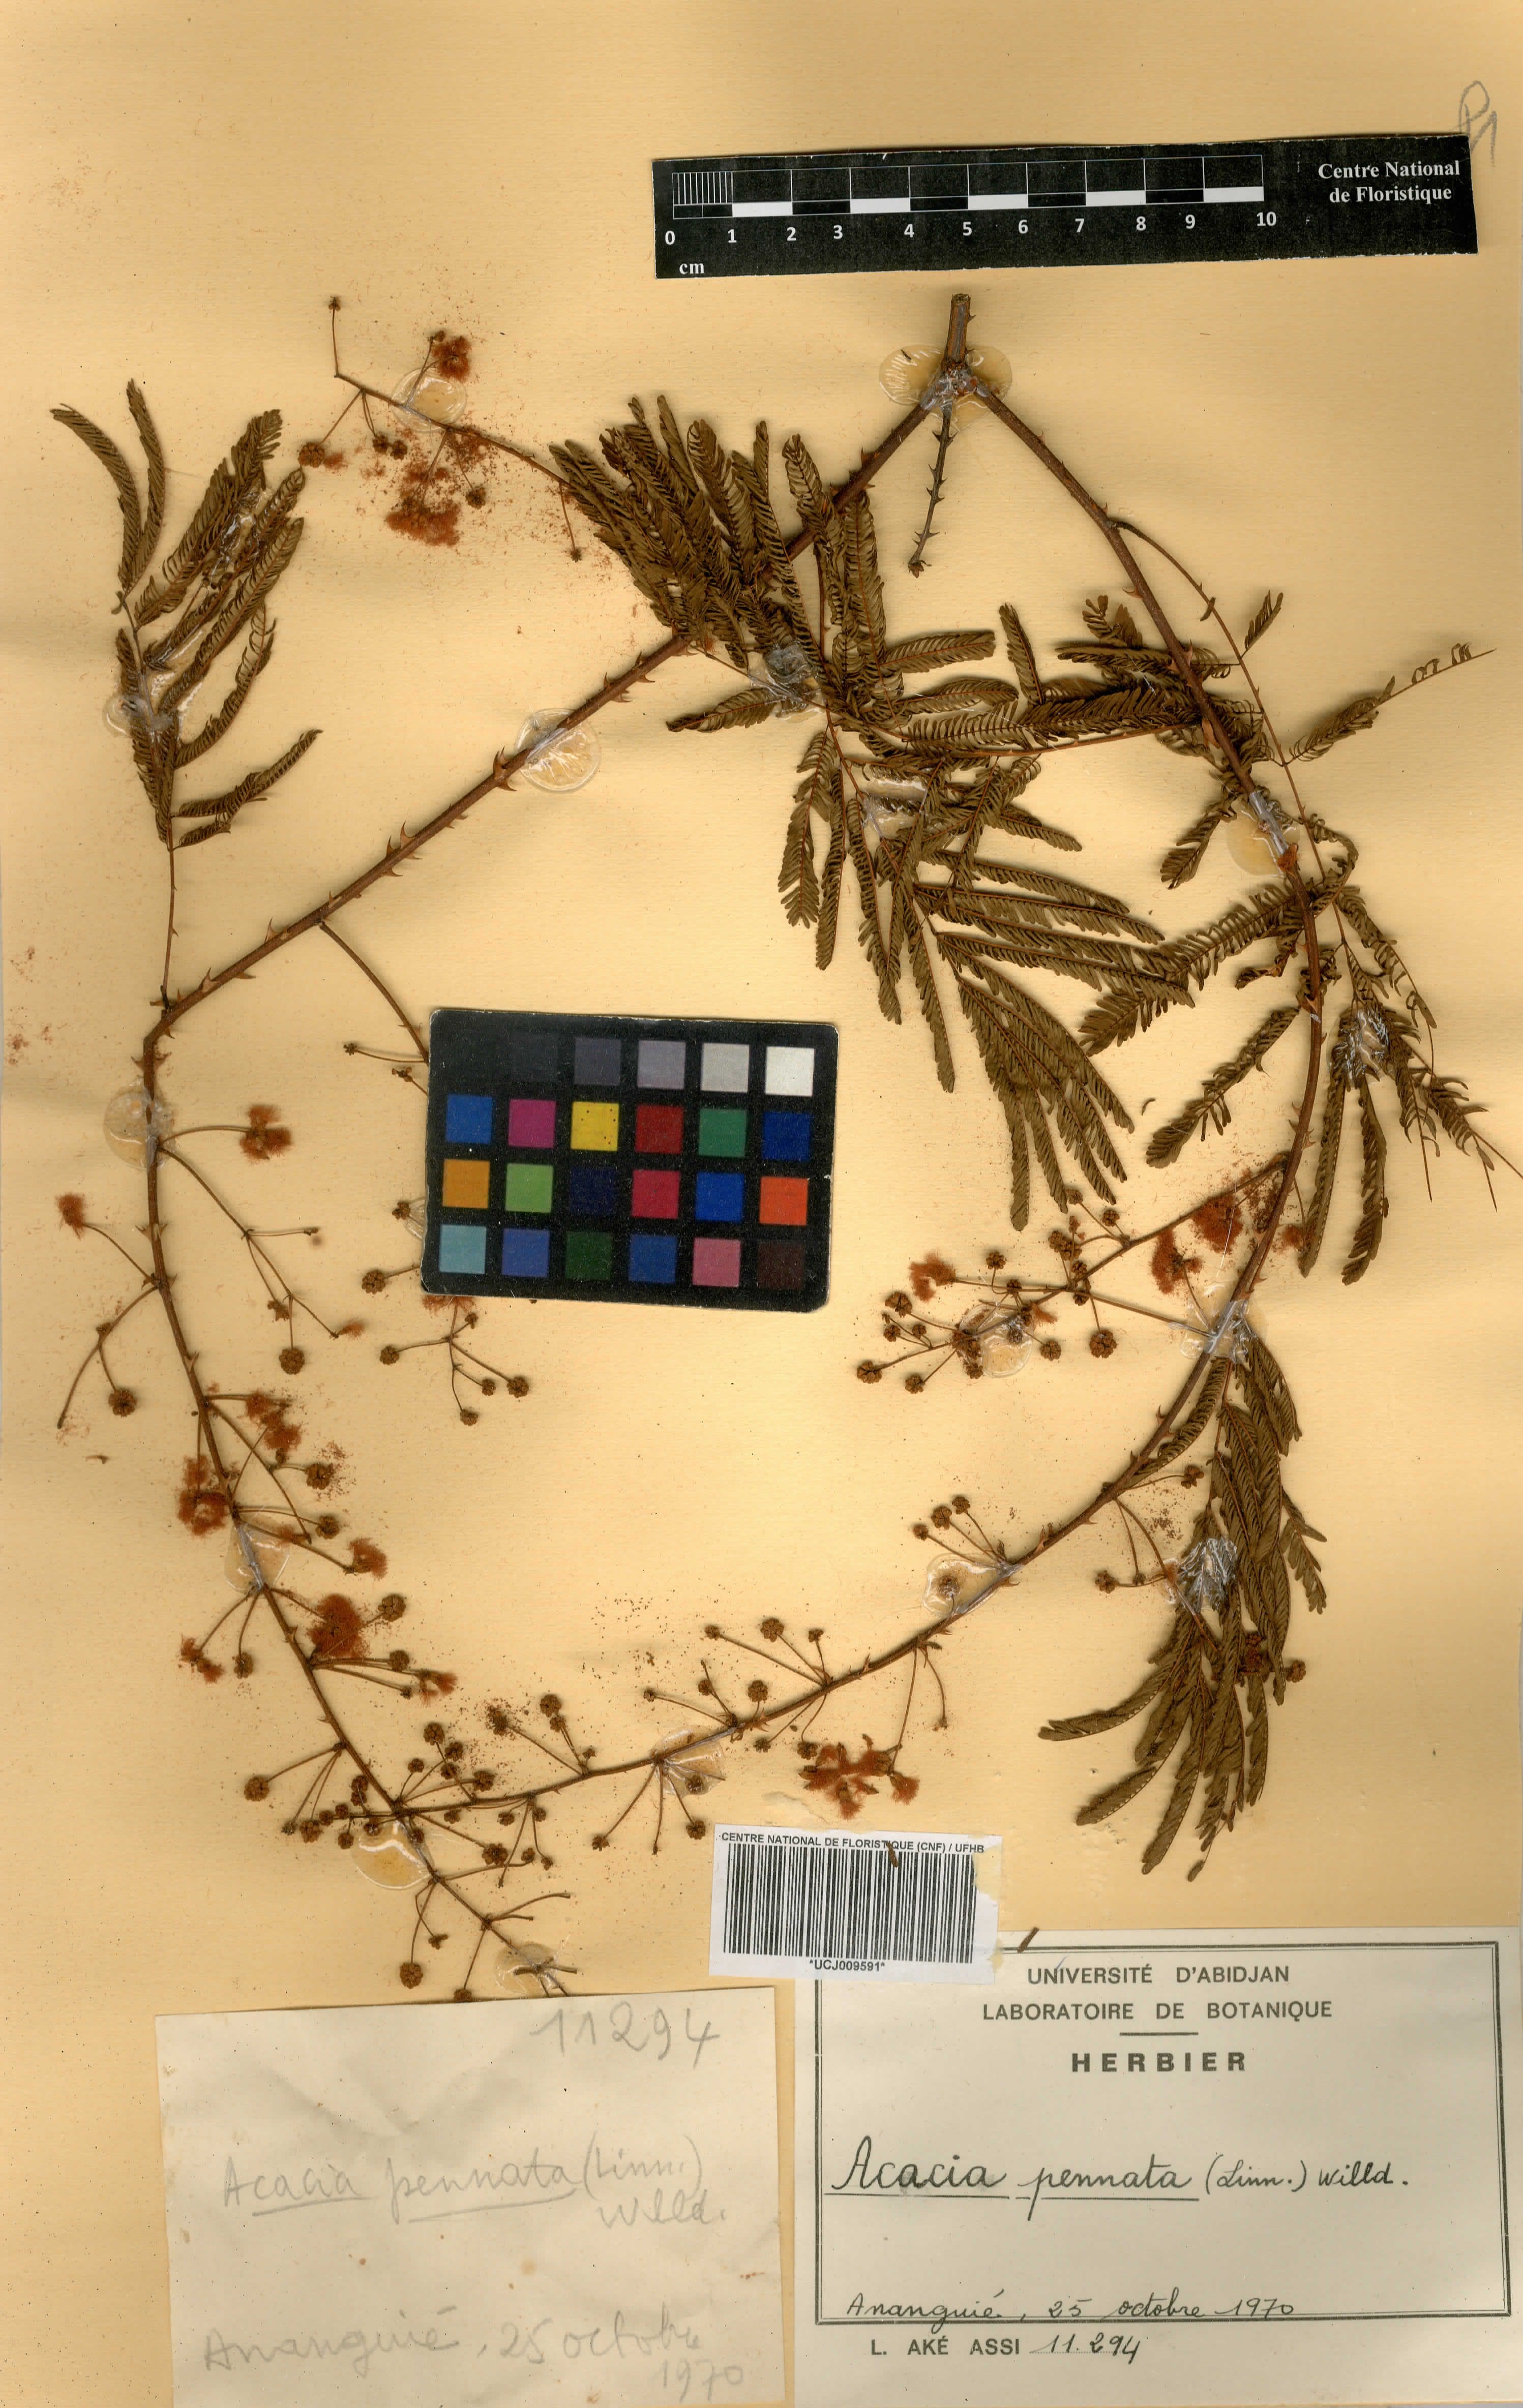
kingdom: Plantae
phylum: Tracheophyta
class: Magnoliopsida
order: Fabales
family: Fabaceae
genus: Senegalia
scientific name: Senegalia pennata
